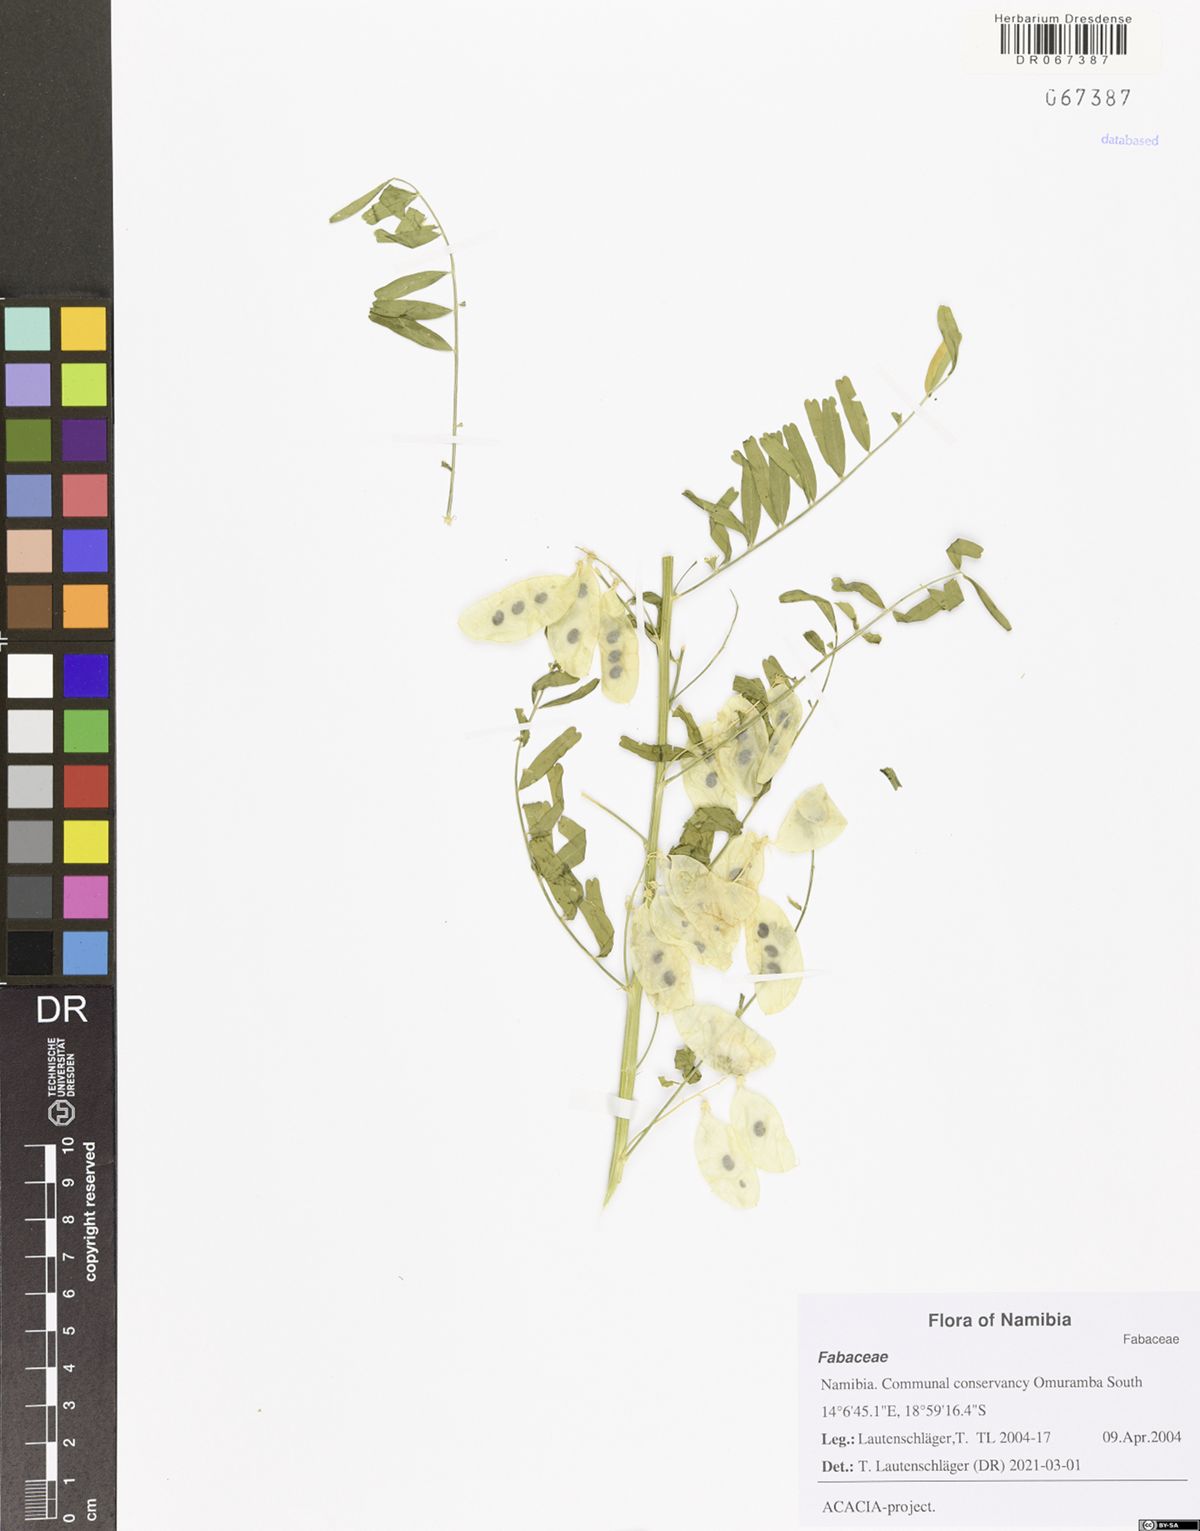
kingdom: Plantae
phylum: Tracheophyta
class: Magnoliopsida
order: Fabales
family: Fabaceae
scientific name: Fabaceae
